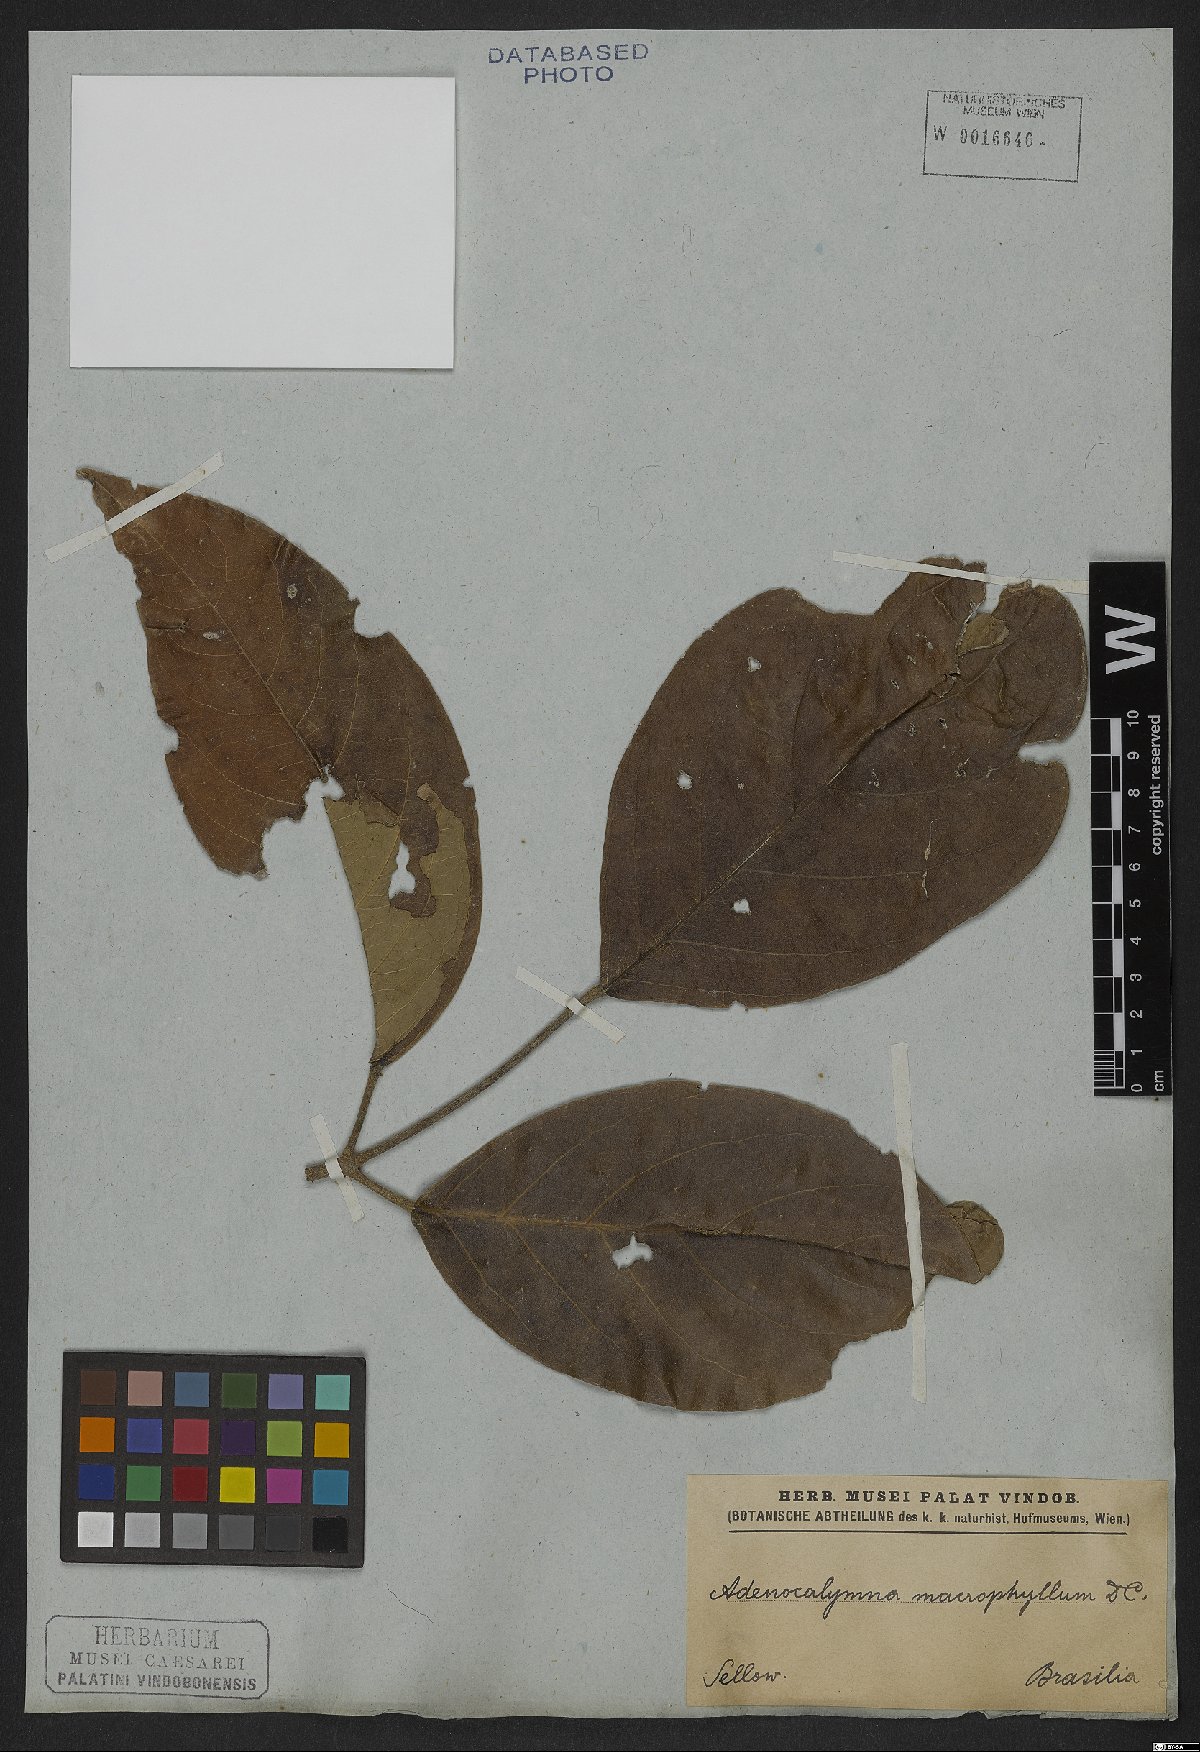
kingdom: Plantae
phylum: Tracheophyta
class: Magnoliopsida
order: Lamiales
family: Bignoniaceae
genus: Adenocalymma
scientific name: Adenocalymma ternatum
